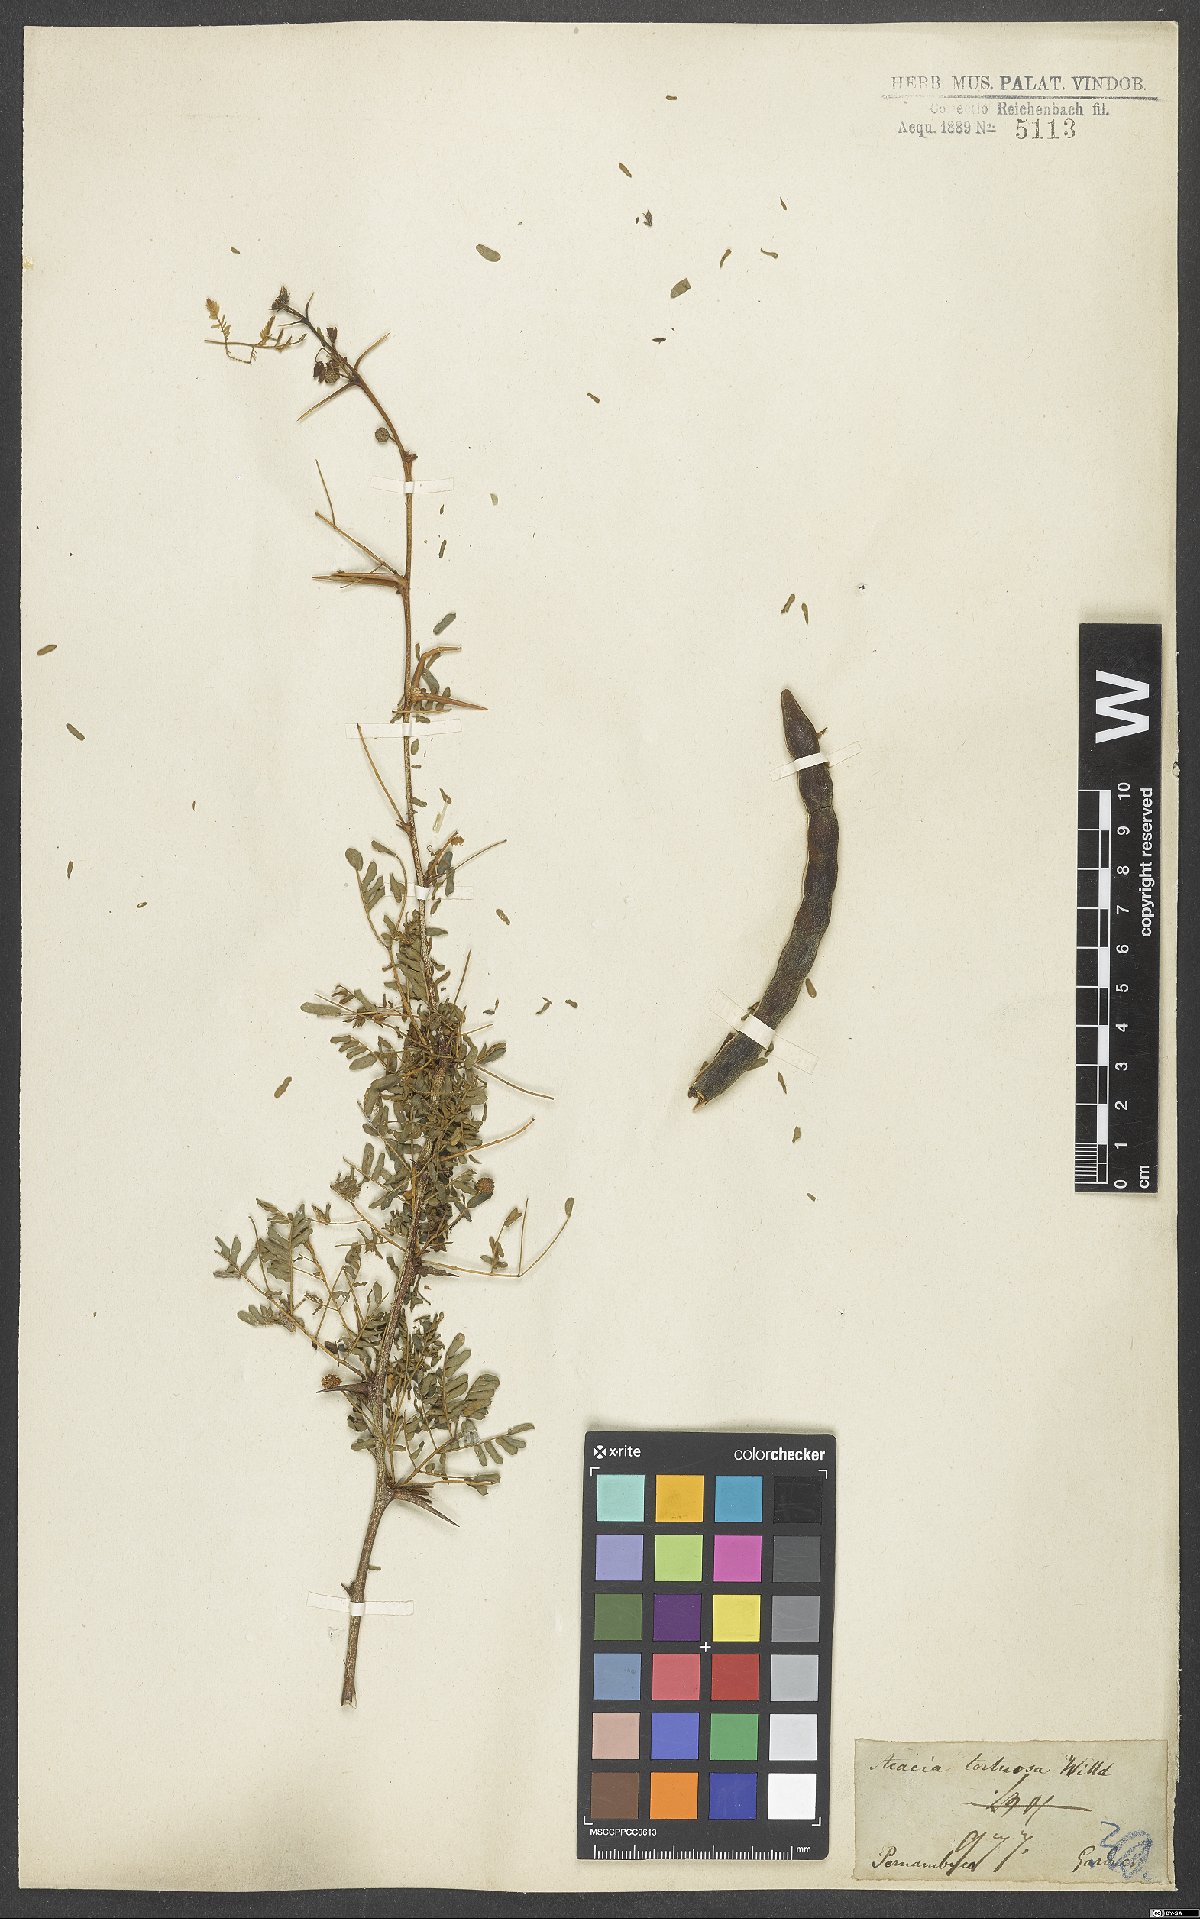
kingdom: Plantae
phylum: Tracheophyta
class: Magnoliopsida
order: Fabales
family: Fabaceae
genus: Vachellia
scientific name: Vachellia tortuosa
